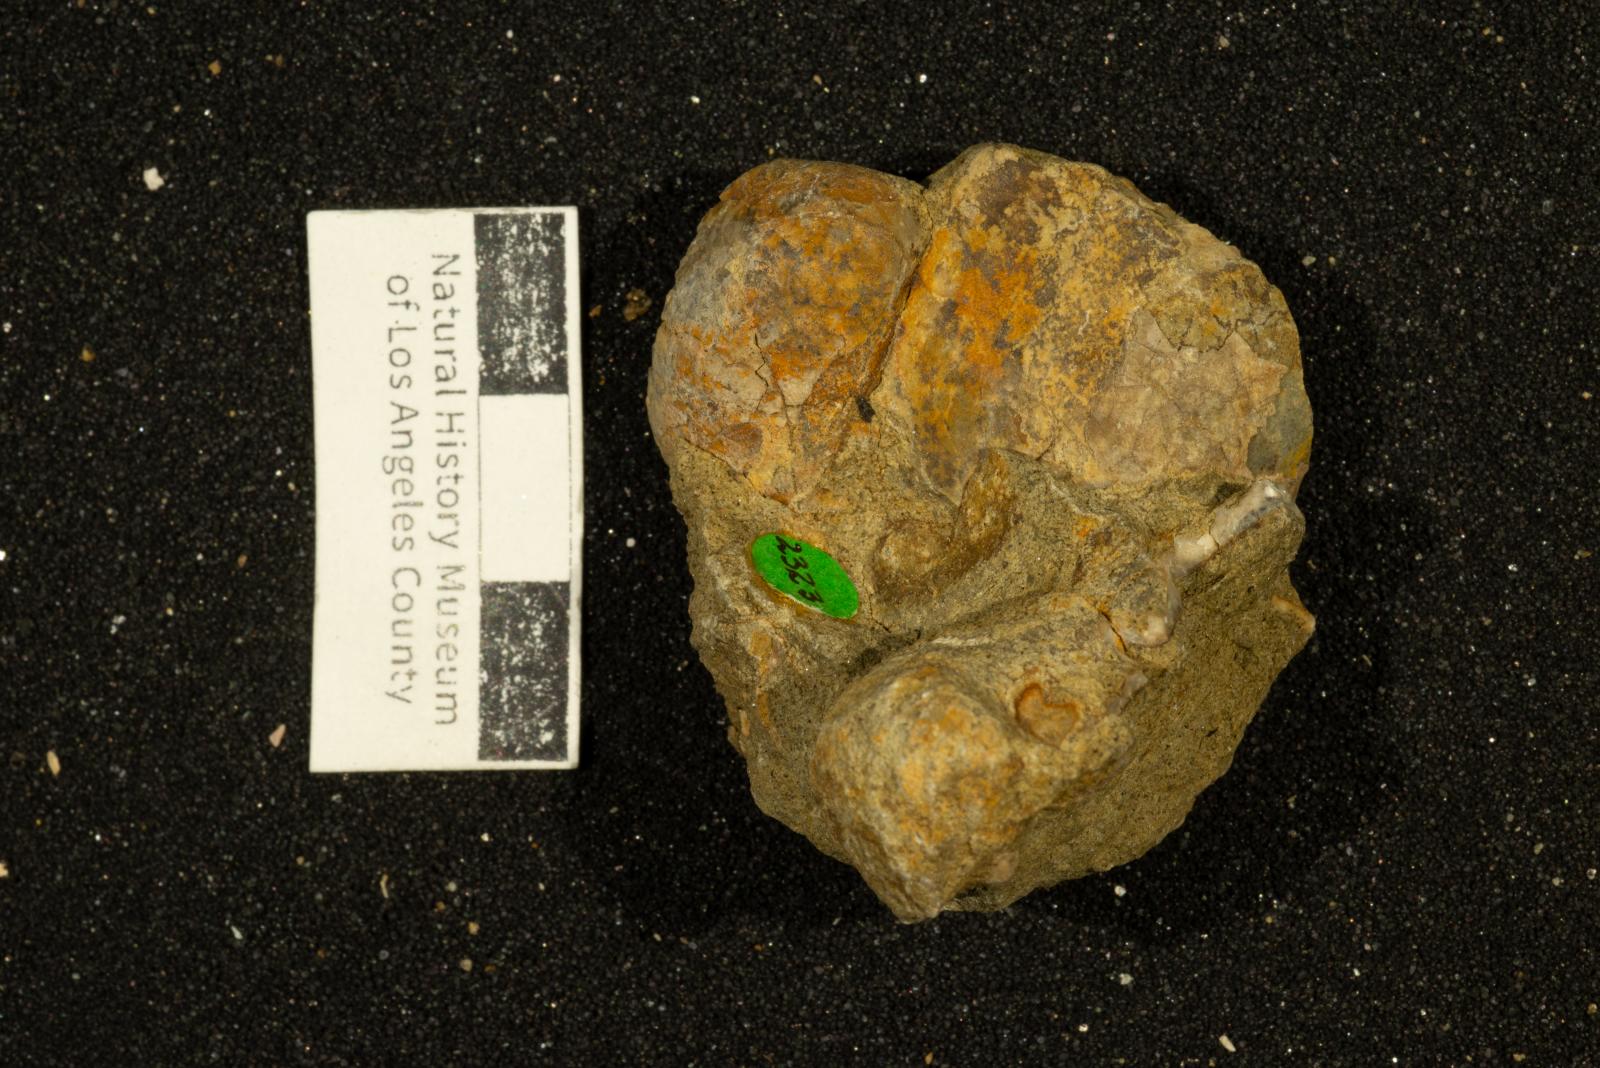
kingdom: Animalia
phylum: Mollusca
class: Bivalvia
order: Limida
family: Limidae
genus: Lima
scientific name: Lima
